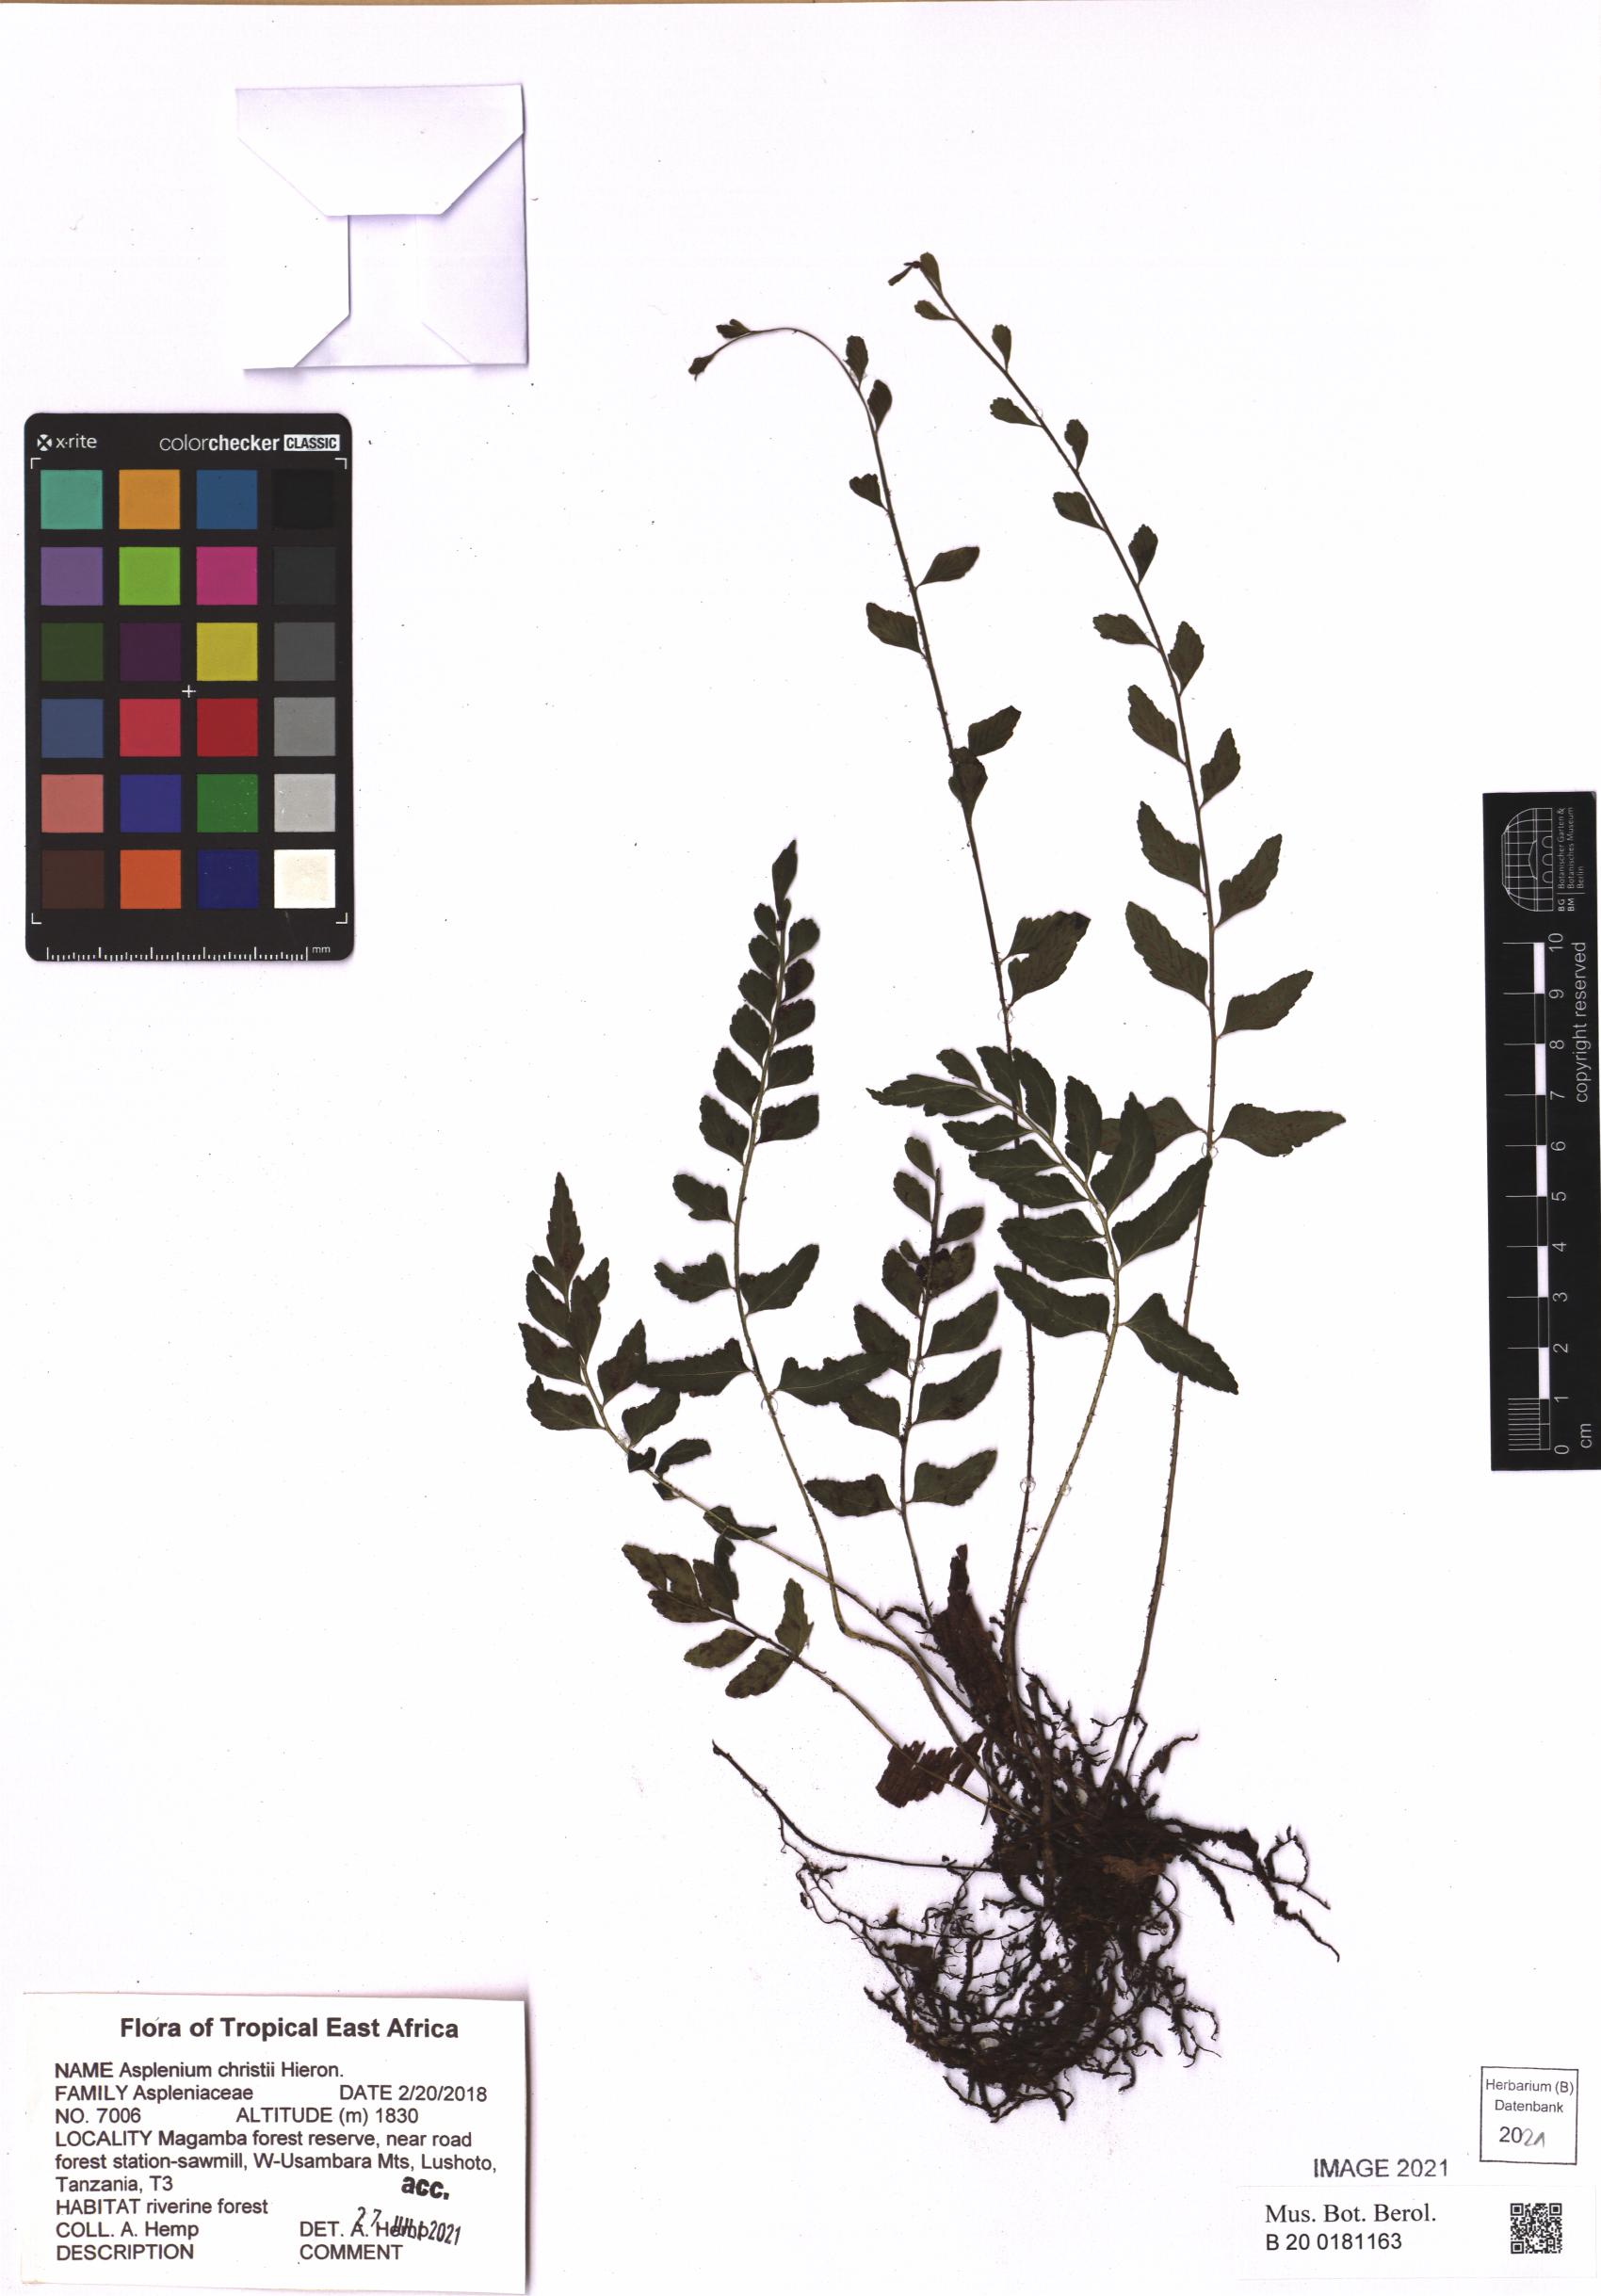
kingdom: Plantae
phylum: Tracheophyta
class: Polypodiopsida
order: Polypodiales
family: Aspleniaceae
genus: Asplenium
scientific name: Asplenium christii
